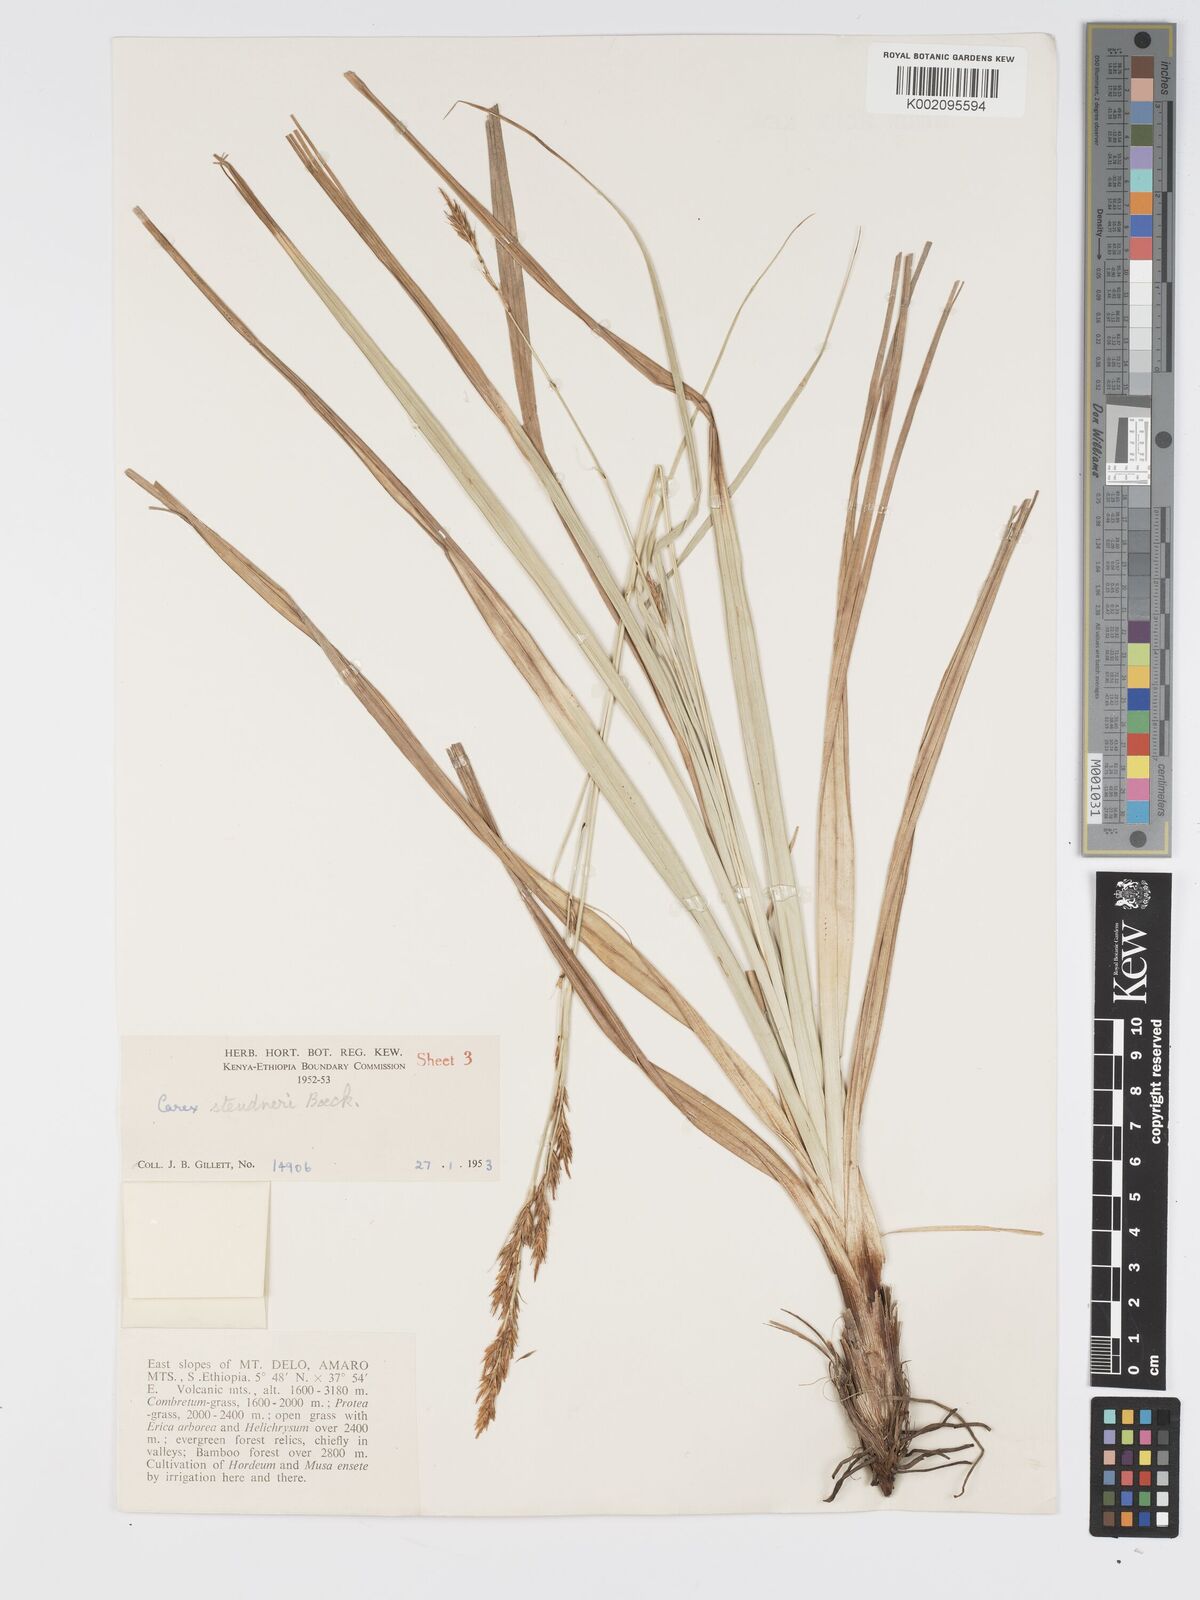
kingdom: Plantae
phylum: Tracheophyta
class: Liliopsida
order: Poales
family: Cyperaceae
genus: Carex
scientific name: Carex steudneri
